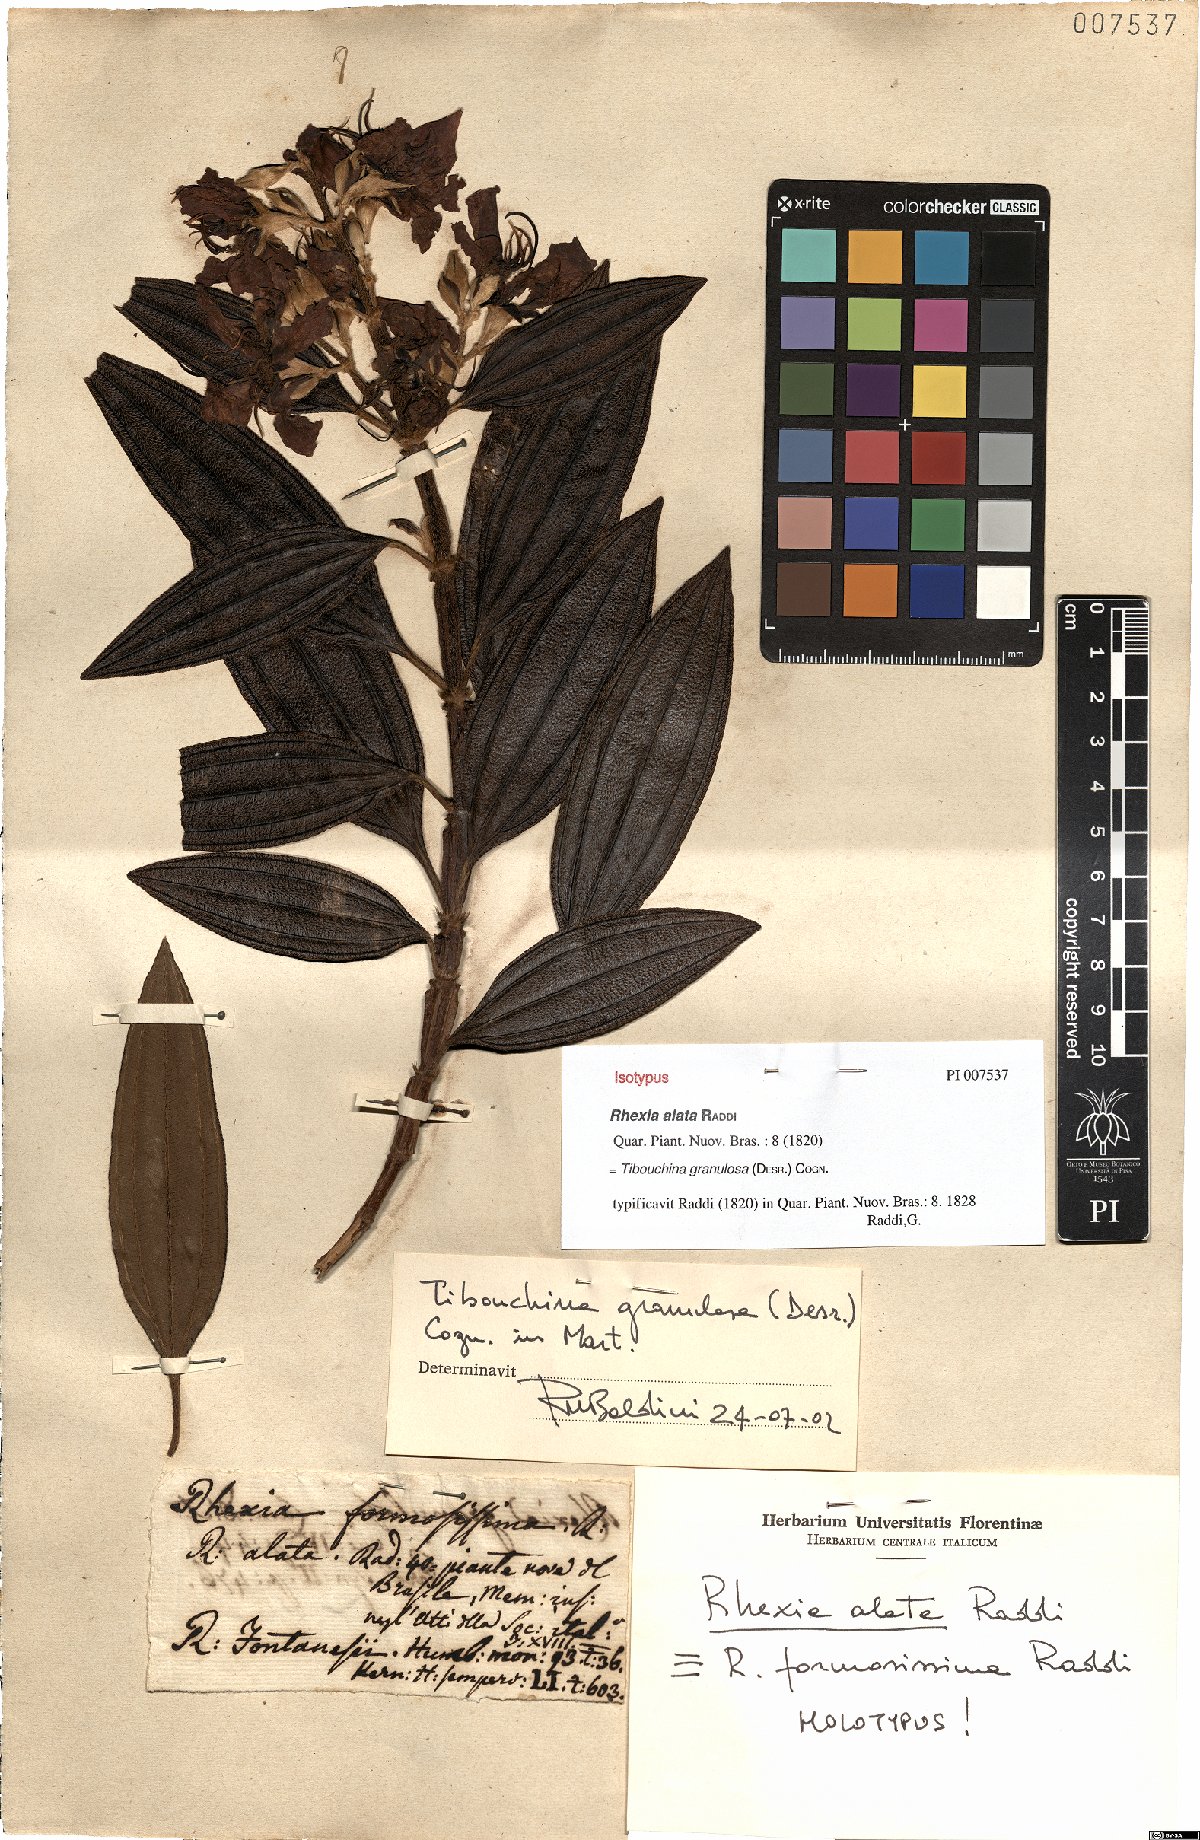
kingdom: Plantae
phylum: Tracheophyta
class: Magnoliopsida
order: Myrtales
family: Melastomataceae
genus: Pleroma
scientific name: Pleroma granulosum
